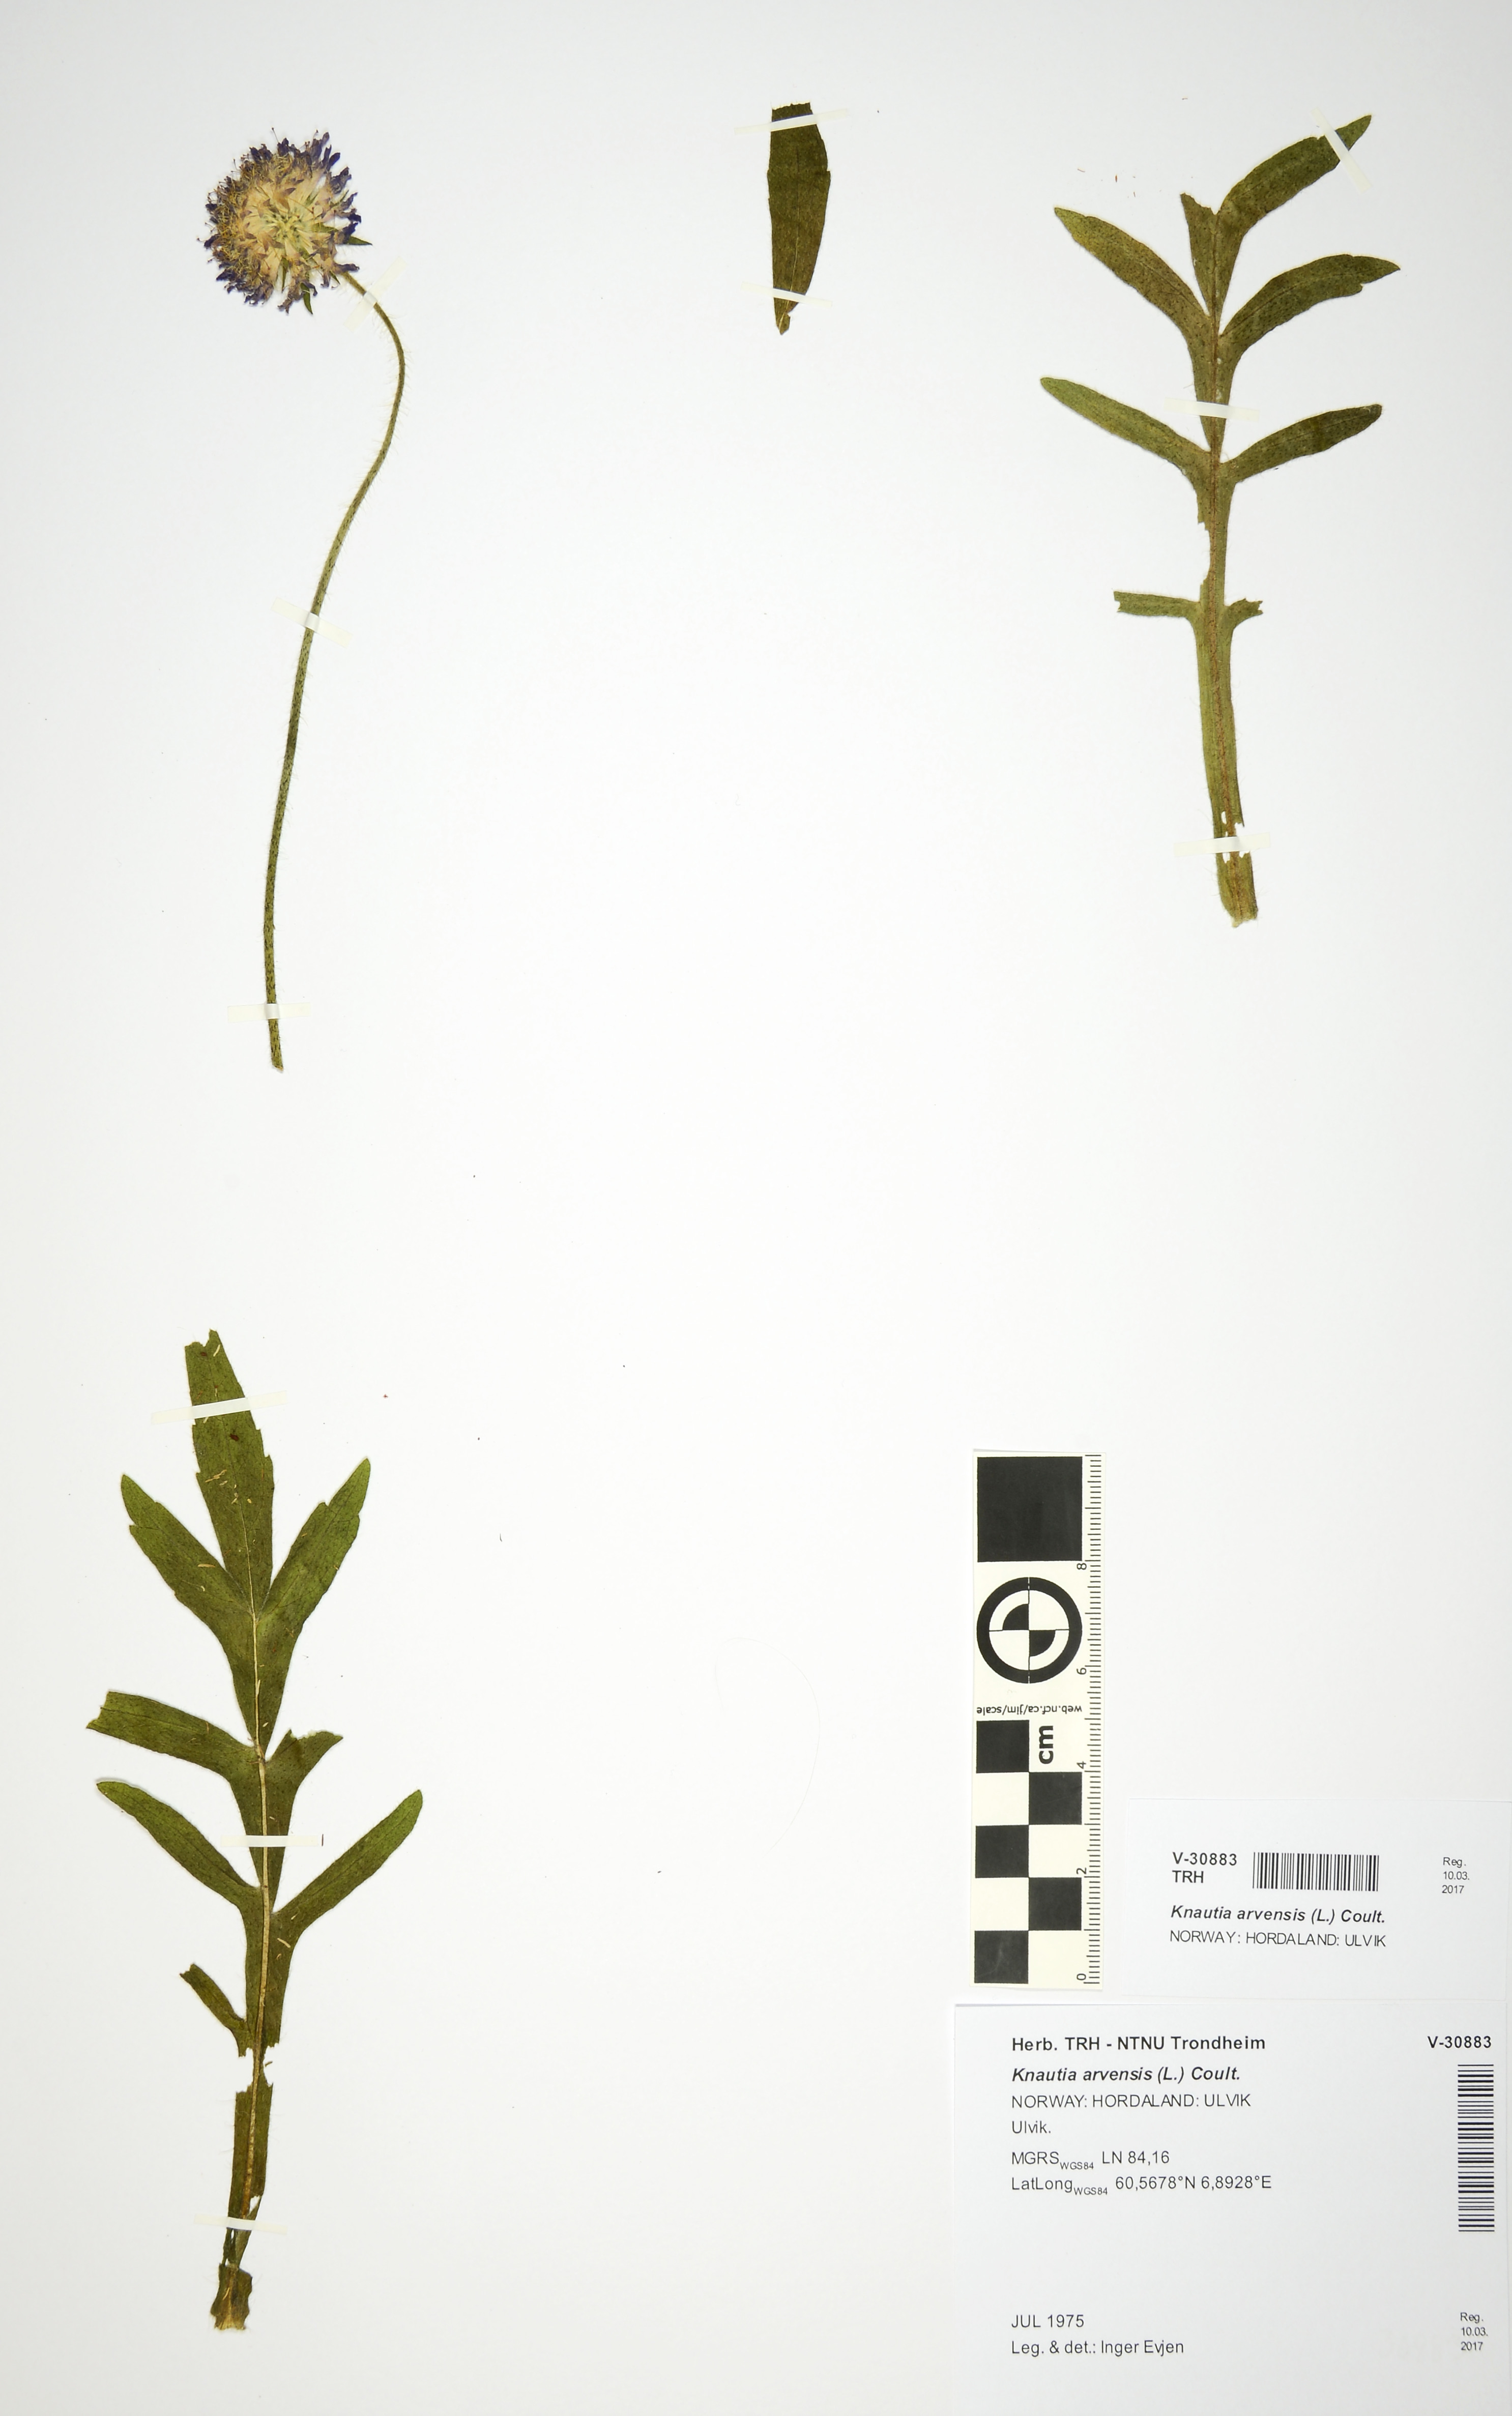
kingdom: Plantae
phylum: Tracheophyta
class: Magnoliopsida
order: Dipsacales
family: Caprifoliaceae
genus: Knautia
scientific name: Knautia arvensis
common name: Field scabiosa
